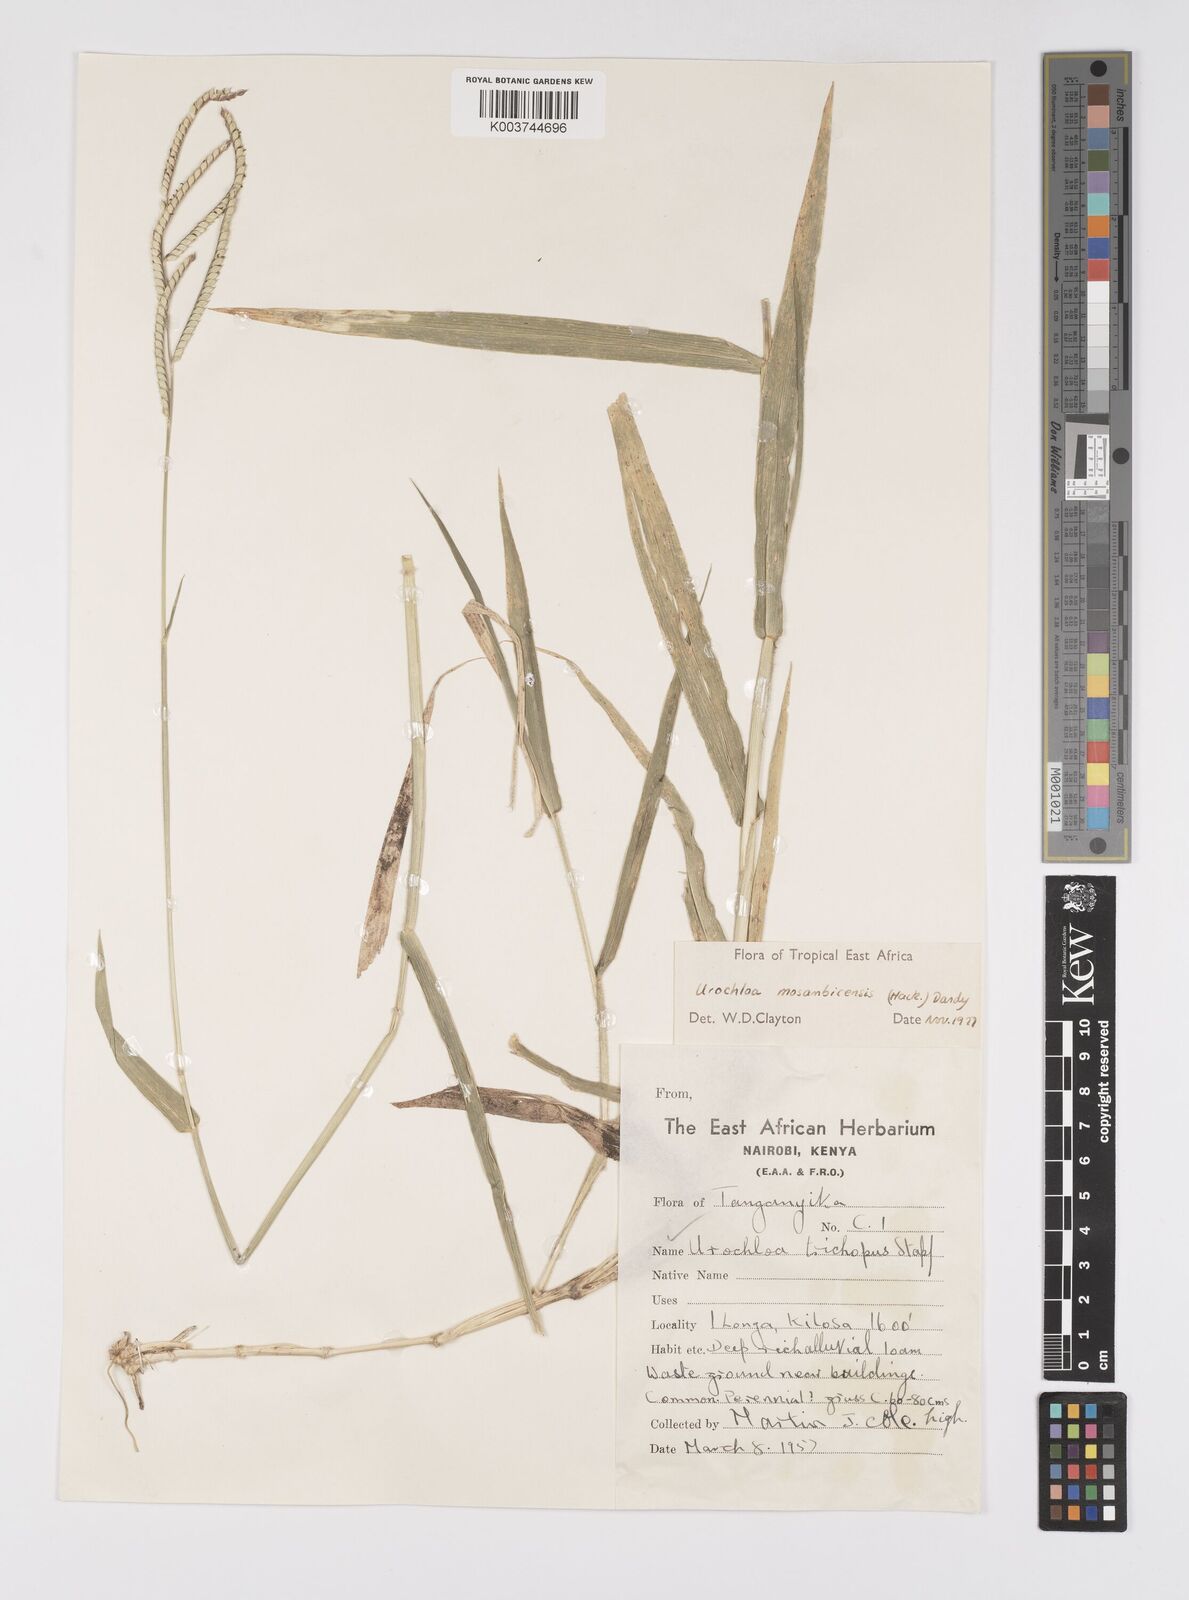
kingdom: Plantae
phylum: Tracheophyta
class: Liliopsida
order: Poales
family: Poaceae
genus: Urochloa
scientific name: Urochloa trichopus
